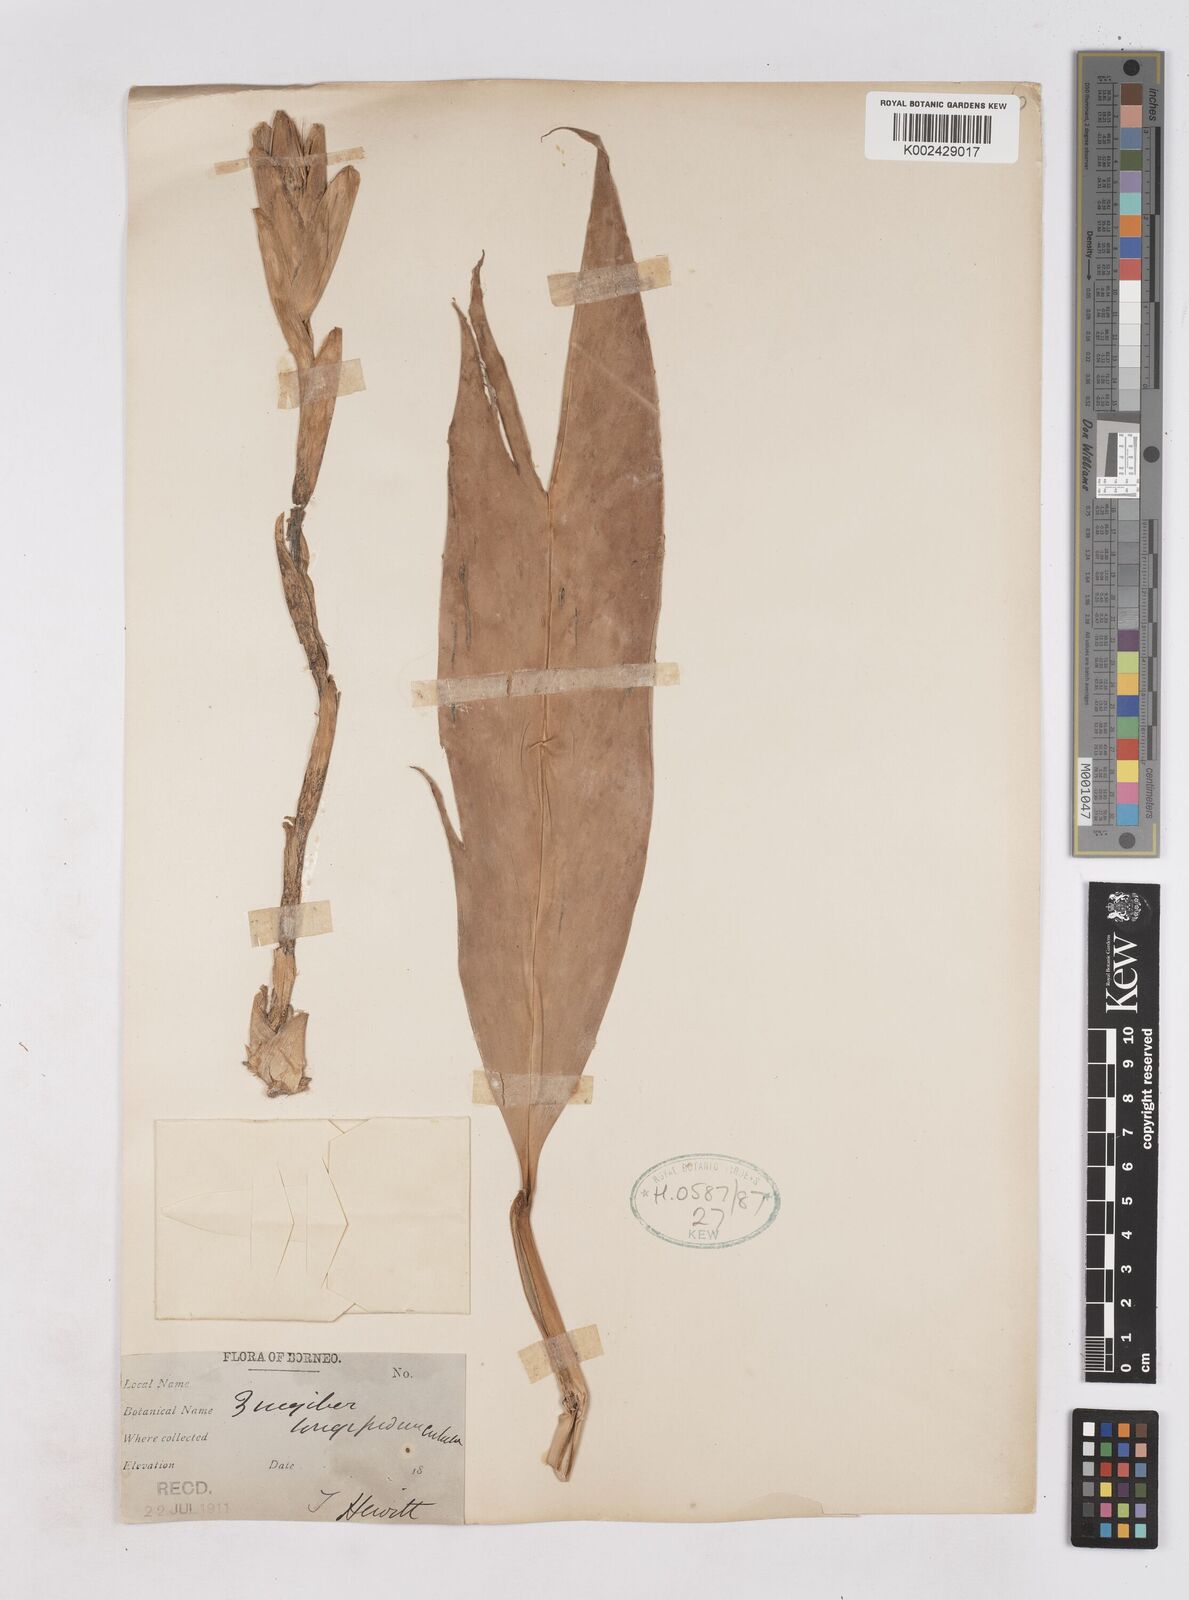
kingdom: Plantae
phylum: Tracheophyta
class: Liliopsida
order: Zingiberales
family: Zingiberaceae
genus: Zingiber
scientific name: Zingiber longipedunculatum
